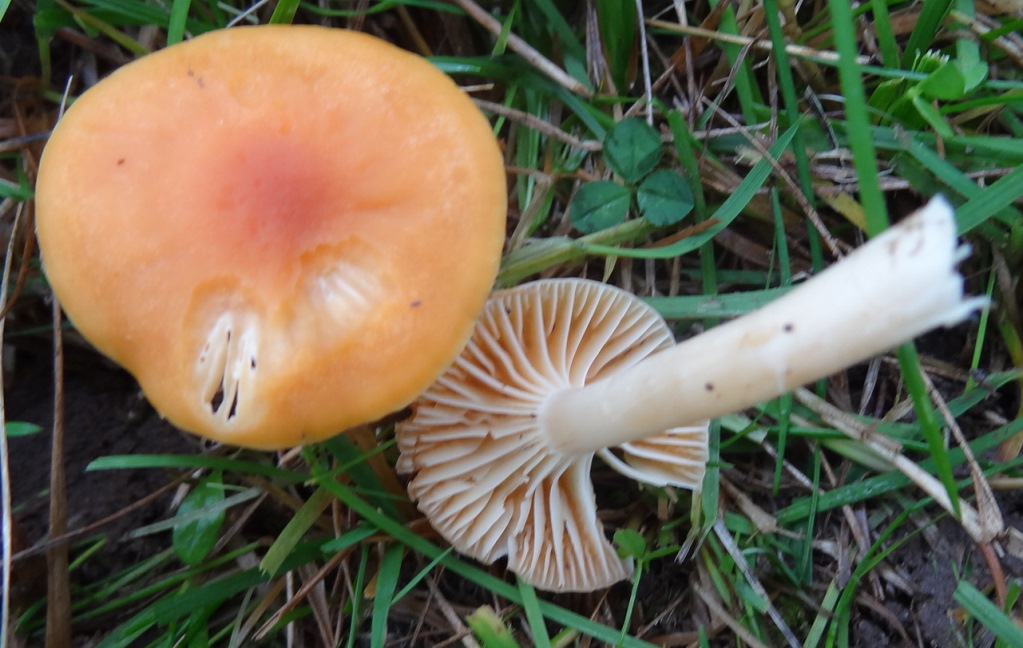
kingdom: Fungi
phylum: Basidiomycota
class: Agaricomycetes
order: Agaricales
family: Hygrophoraceae
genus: Cuphophyllus
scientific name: Cuphophyllus pratensis
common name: eng-vokshat
